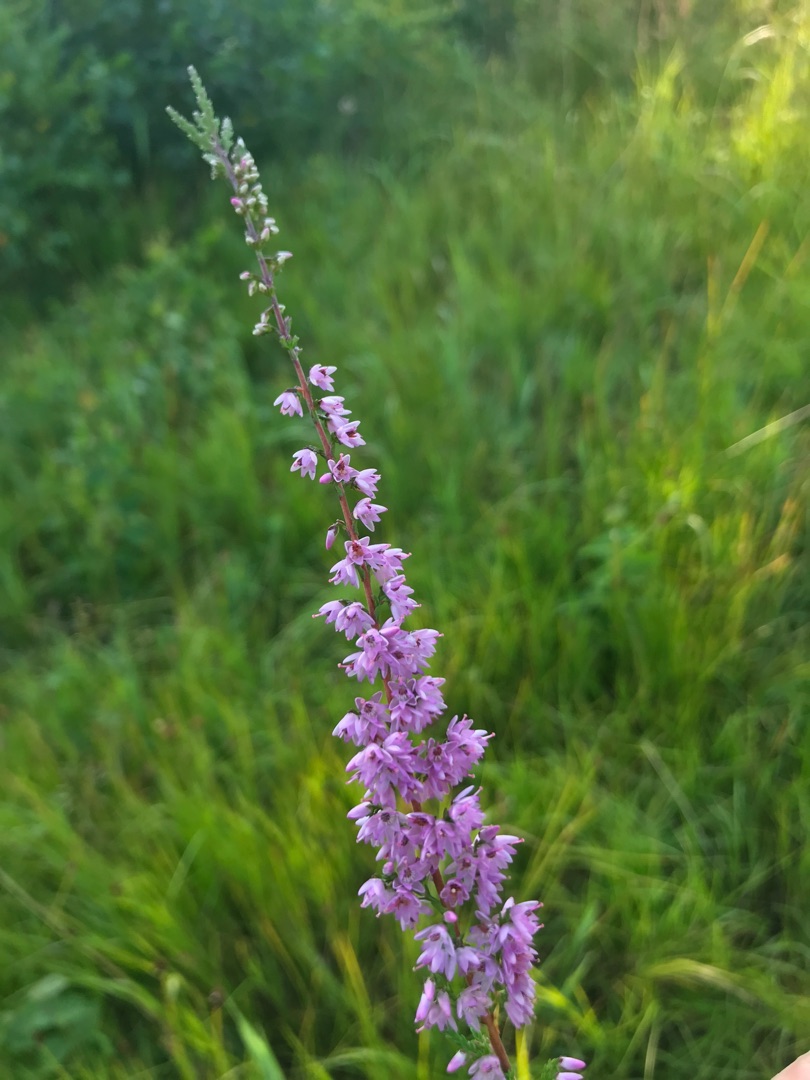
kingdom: Plantae
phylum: Tracheophyta
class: Magnoliopsida
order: Ericales
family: Ericaceae
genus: Calluna
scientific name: Calluna vulgaris
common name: Hedelyng
